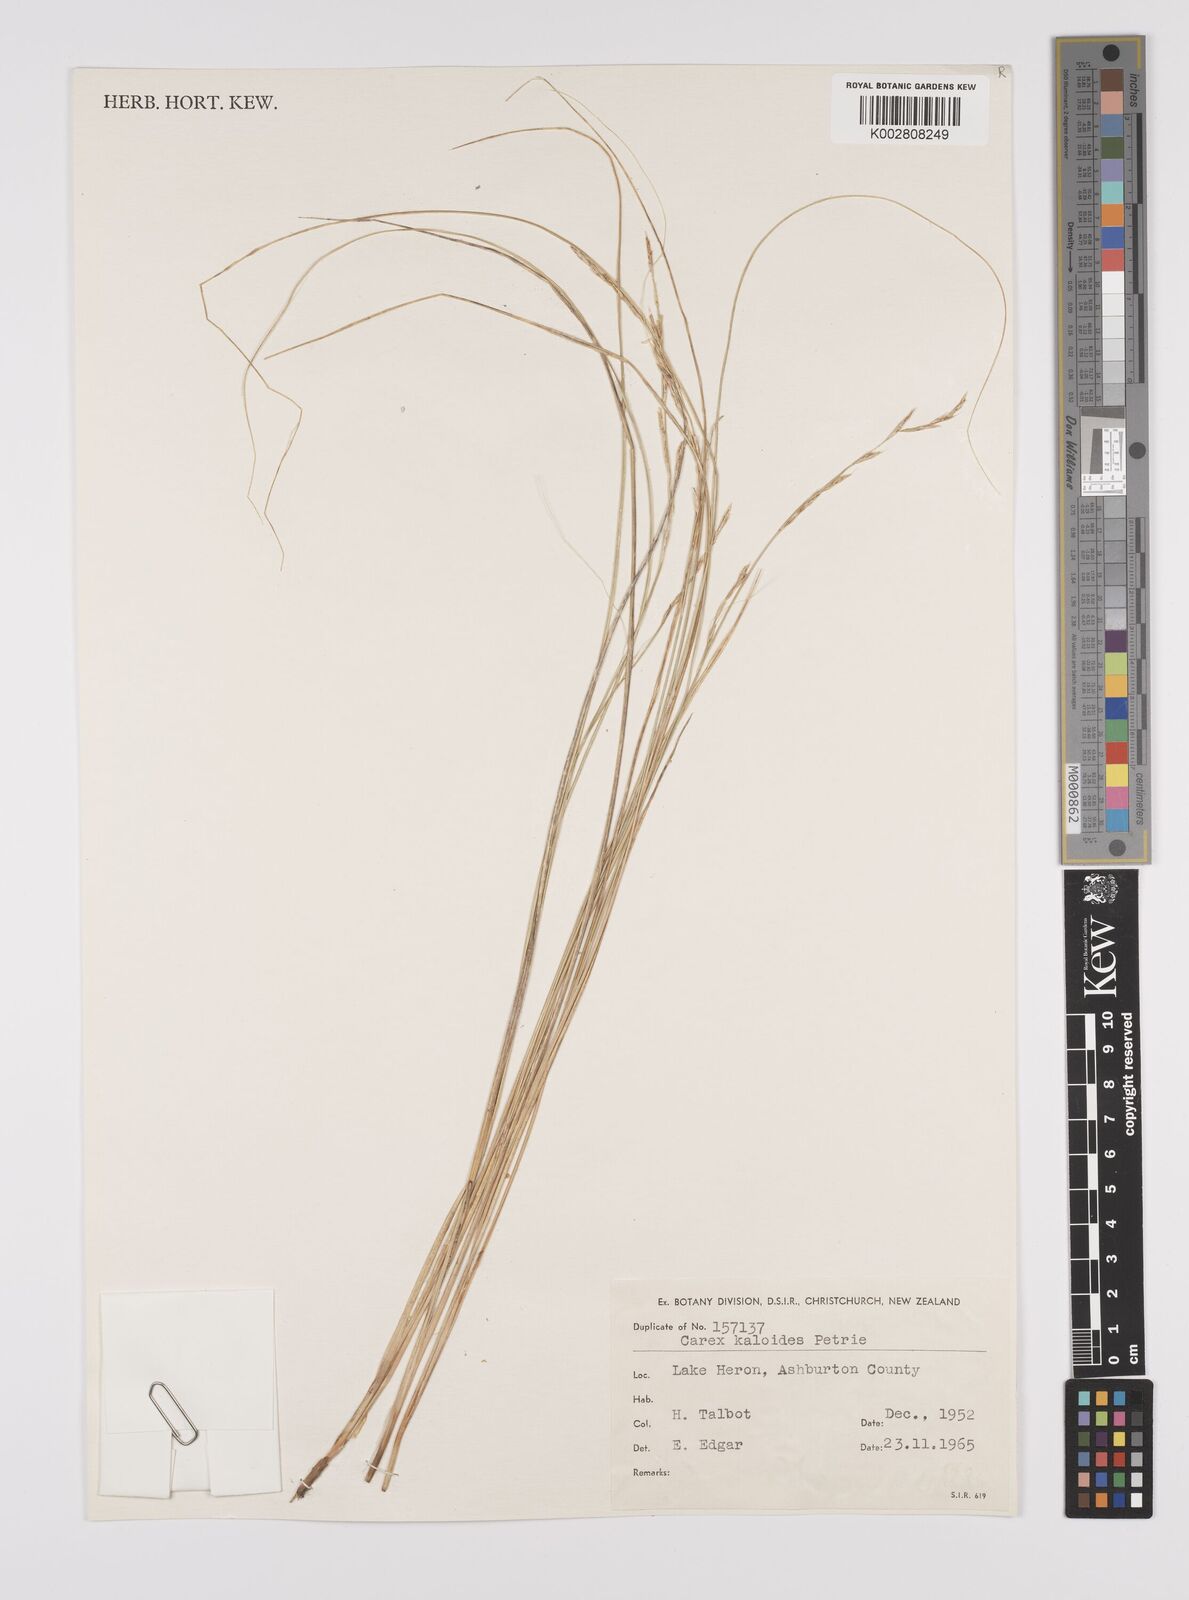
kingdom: Plantae
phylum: Tracheophyta
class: Liliopsida
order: Poales
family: Cyperaceae
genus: Carex
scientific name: Carex kaloides
